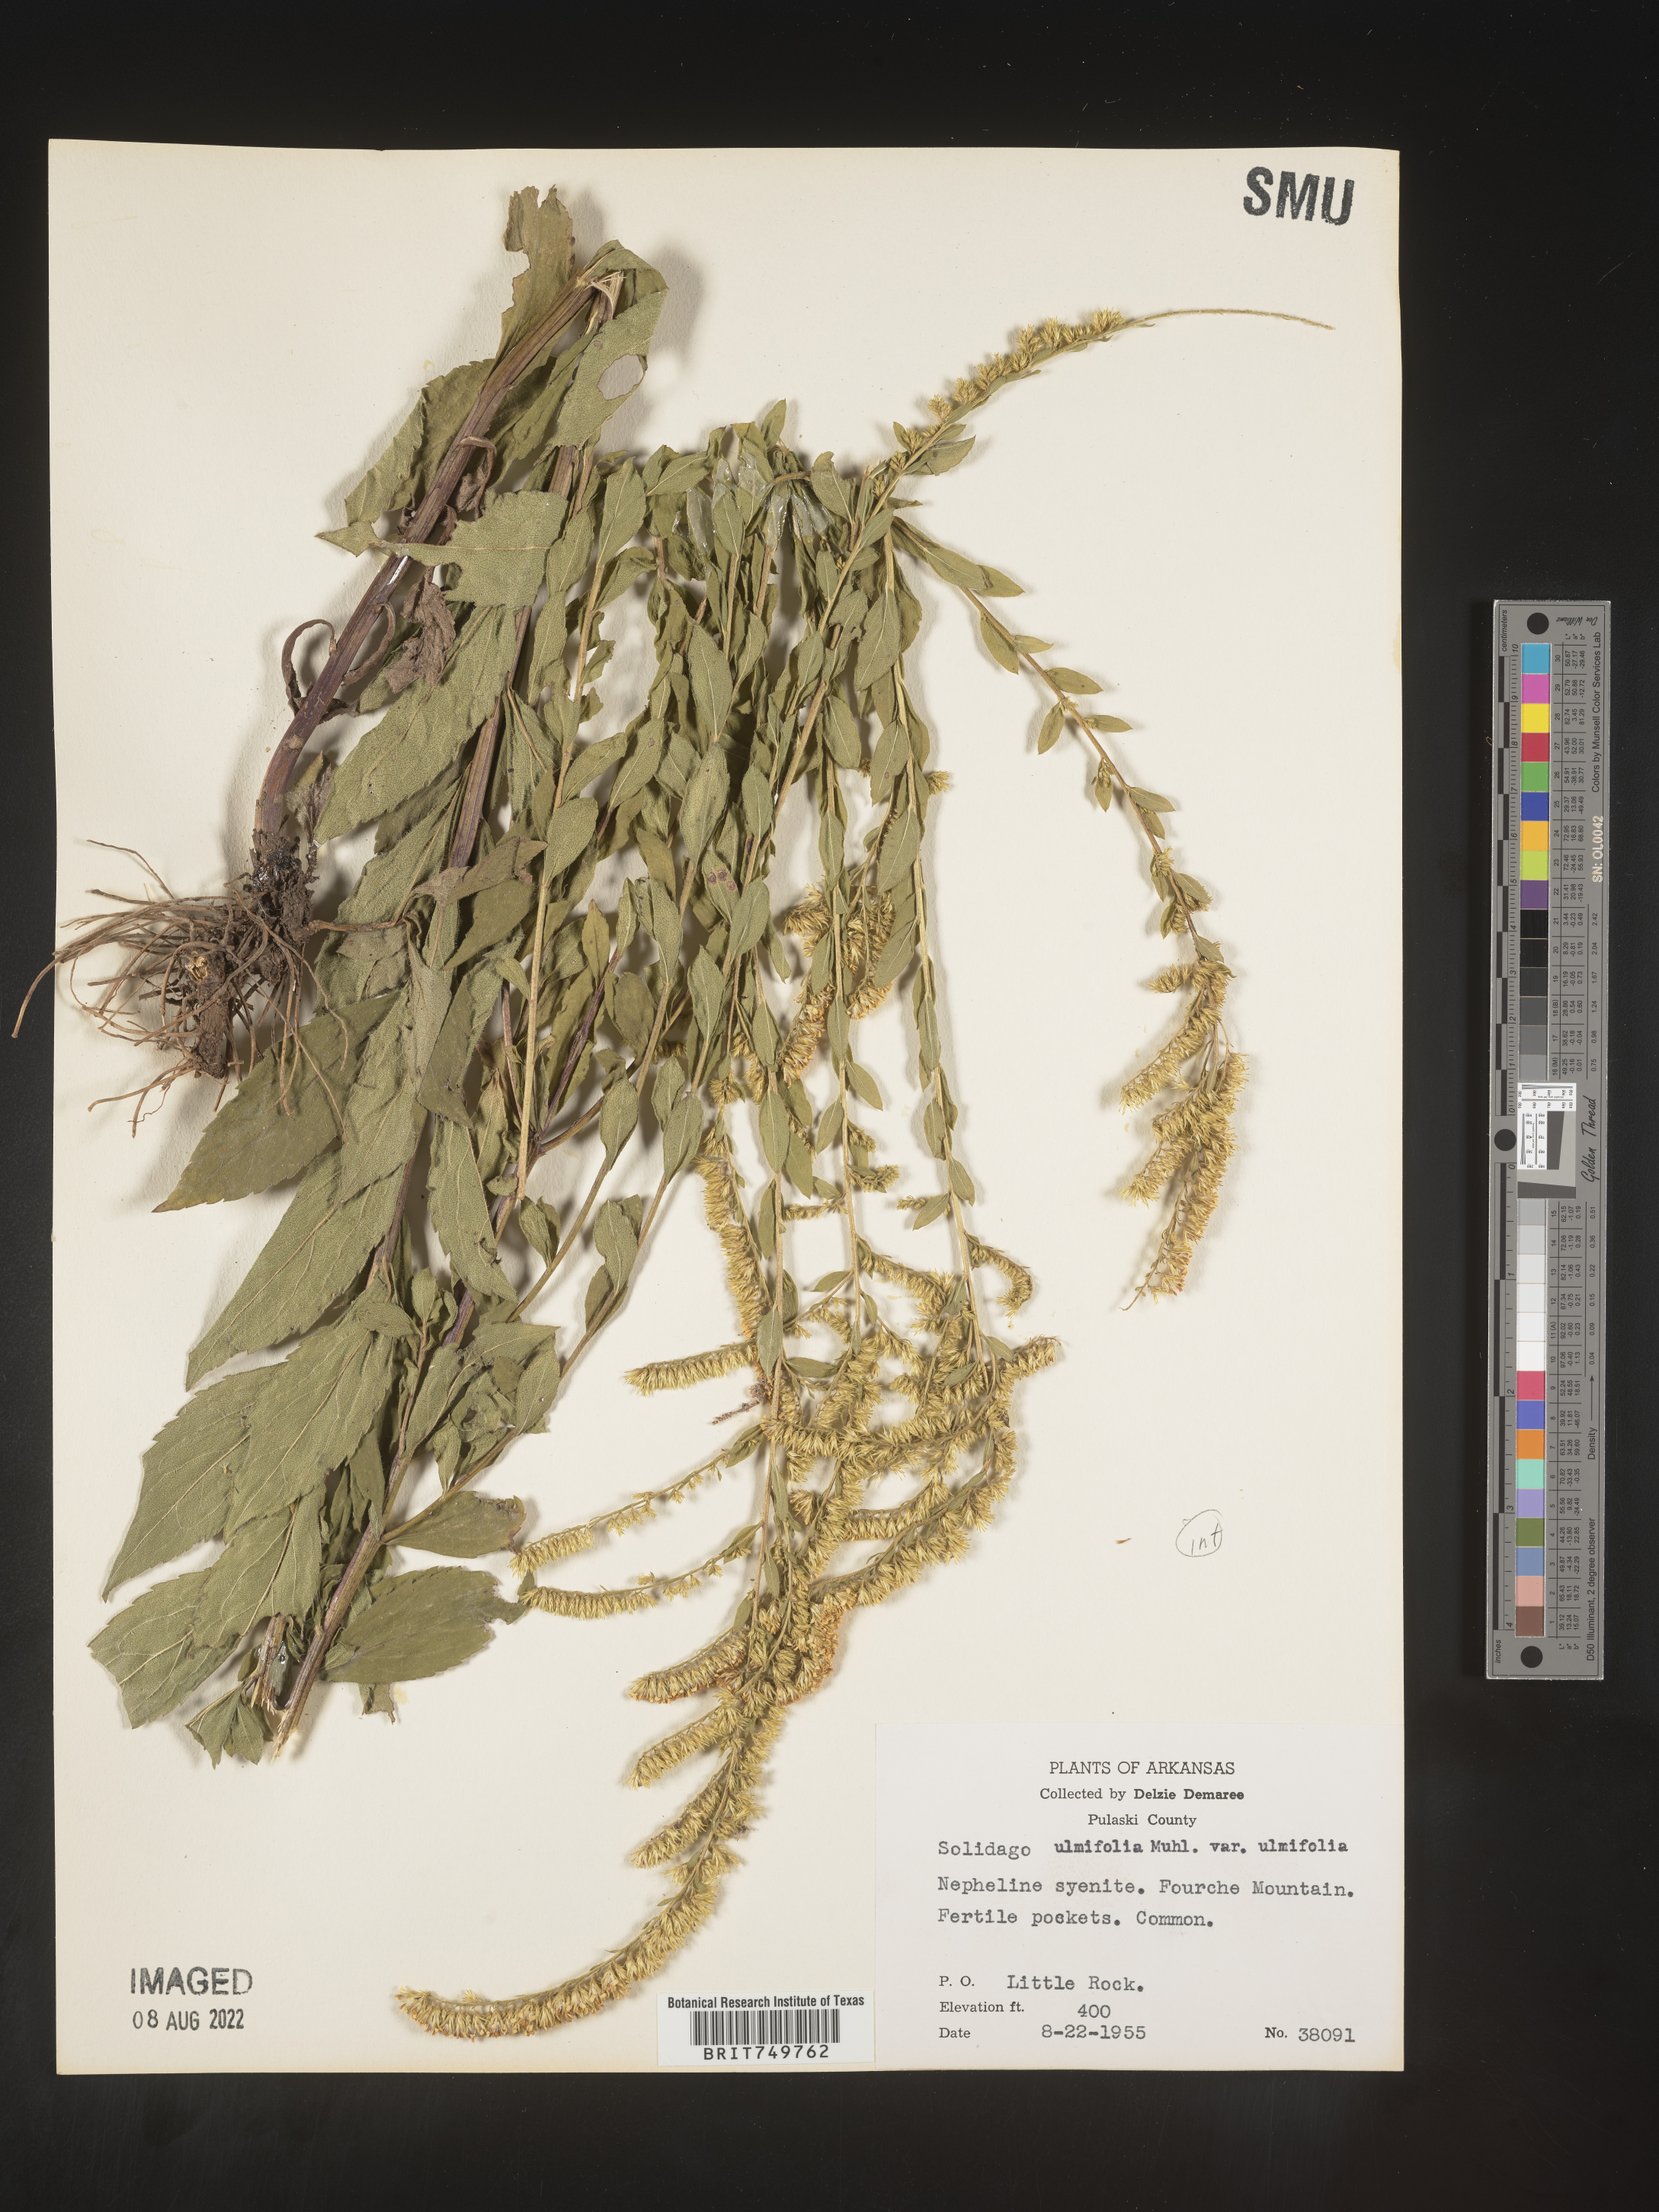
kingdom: Plantae
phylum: Tracheophyta
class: Magnoliopsida
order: Asterales
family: Asteraceae
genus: Solidago
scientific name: Solidago ulmifolia
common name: Elm-leaf goldenrod
